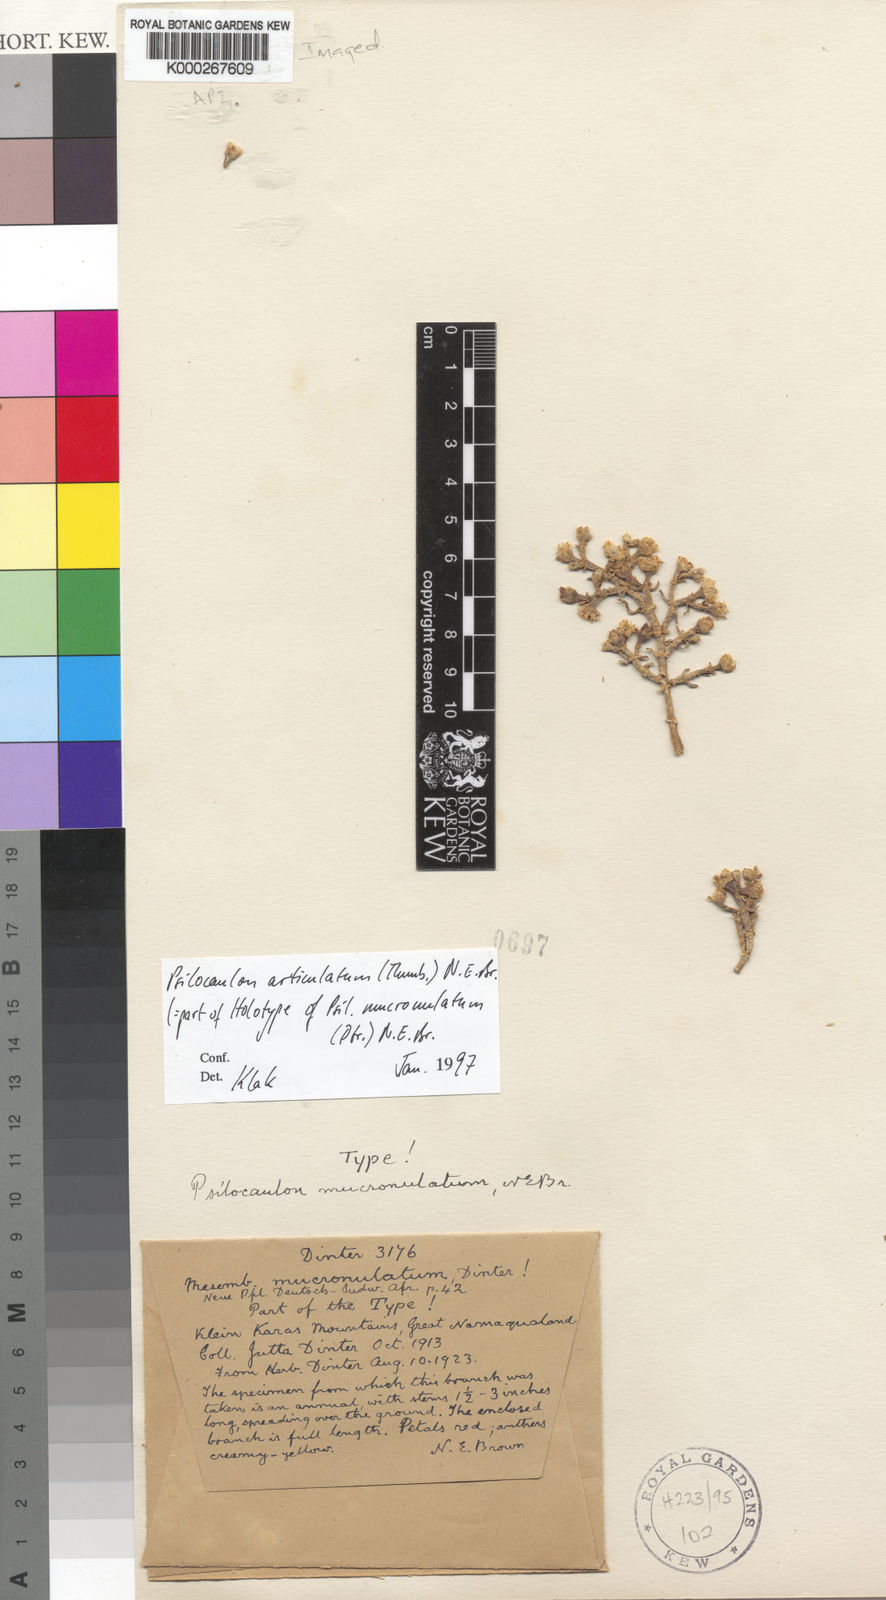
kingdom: Plantae
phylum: Tracheophyta
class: Magnoliopsida
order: Caryophyllales
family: Aizoaceae
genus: Mesembryanthemum
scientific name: Mesembryanthemum articulatum
